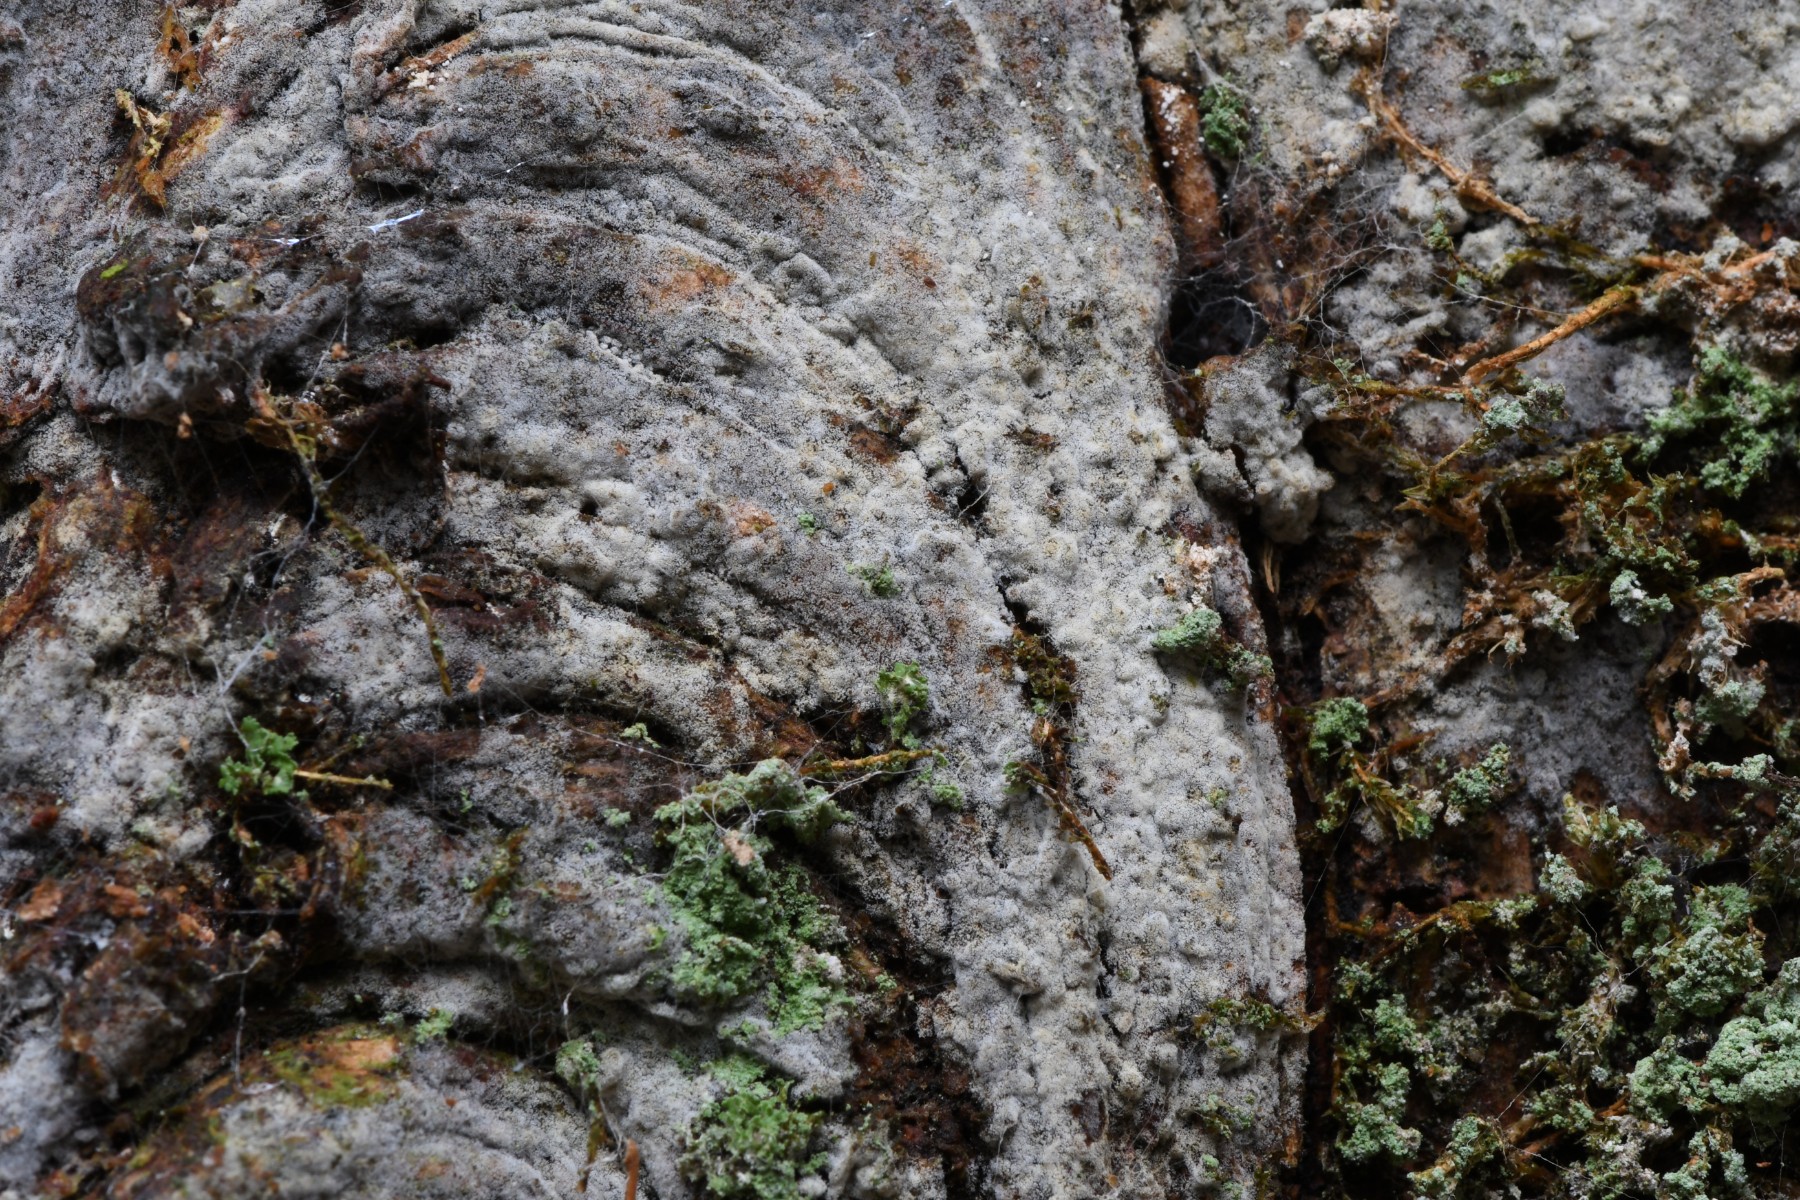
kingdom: Fungi
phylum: Basidiomycota
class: Agaricomycetes
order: Corticiales
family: Corticiaceae
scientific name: Corticiaceae
